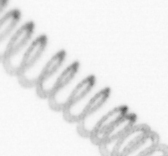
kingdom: Chromista
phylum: Ochrophyta
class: Bacillariophyceae
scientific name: Bacillariophyceae
